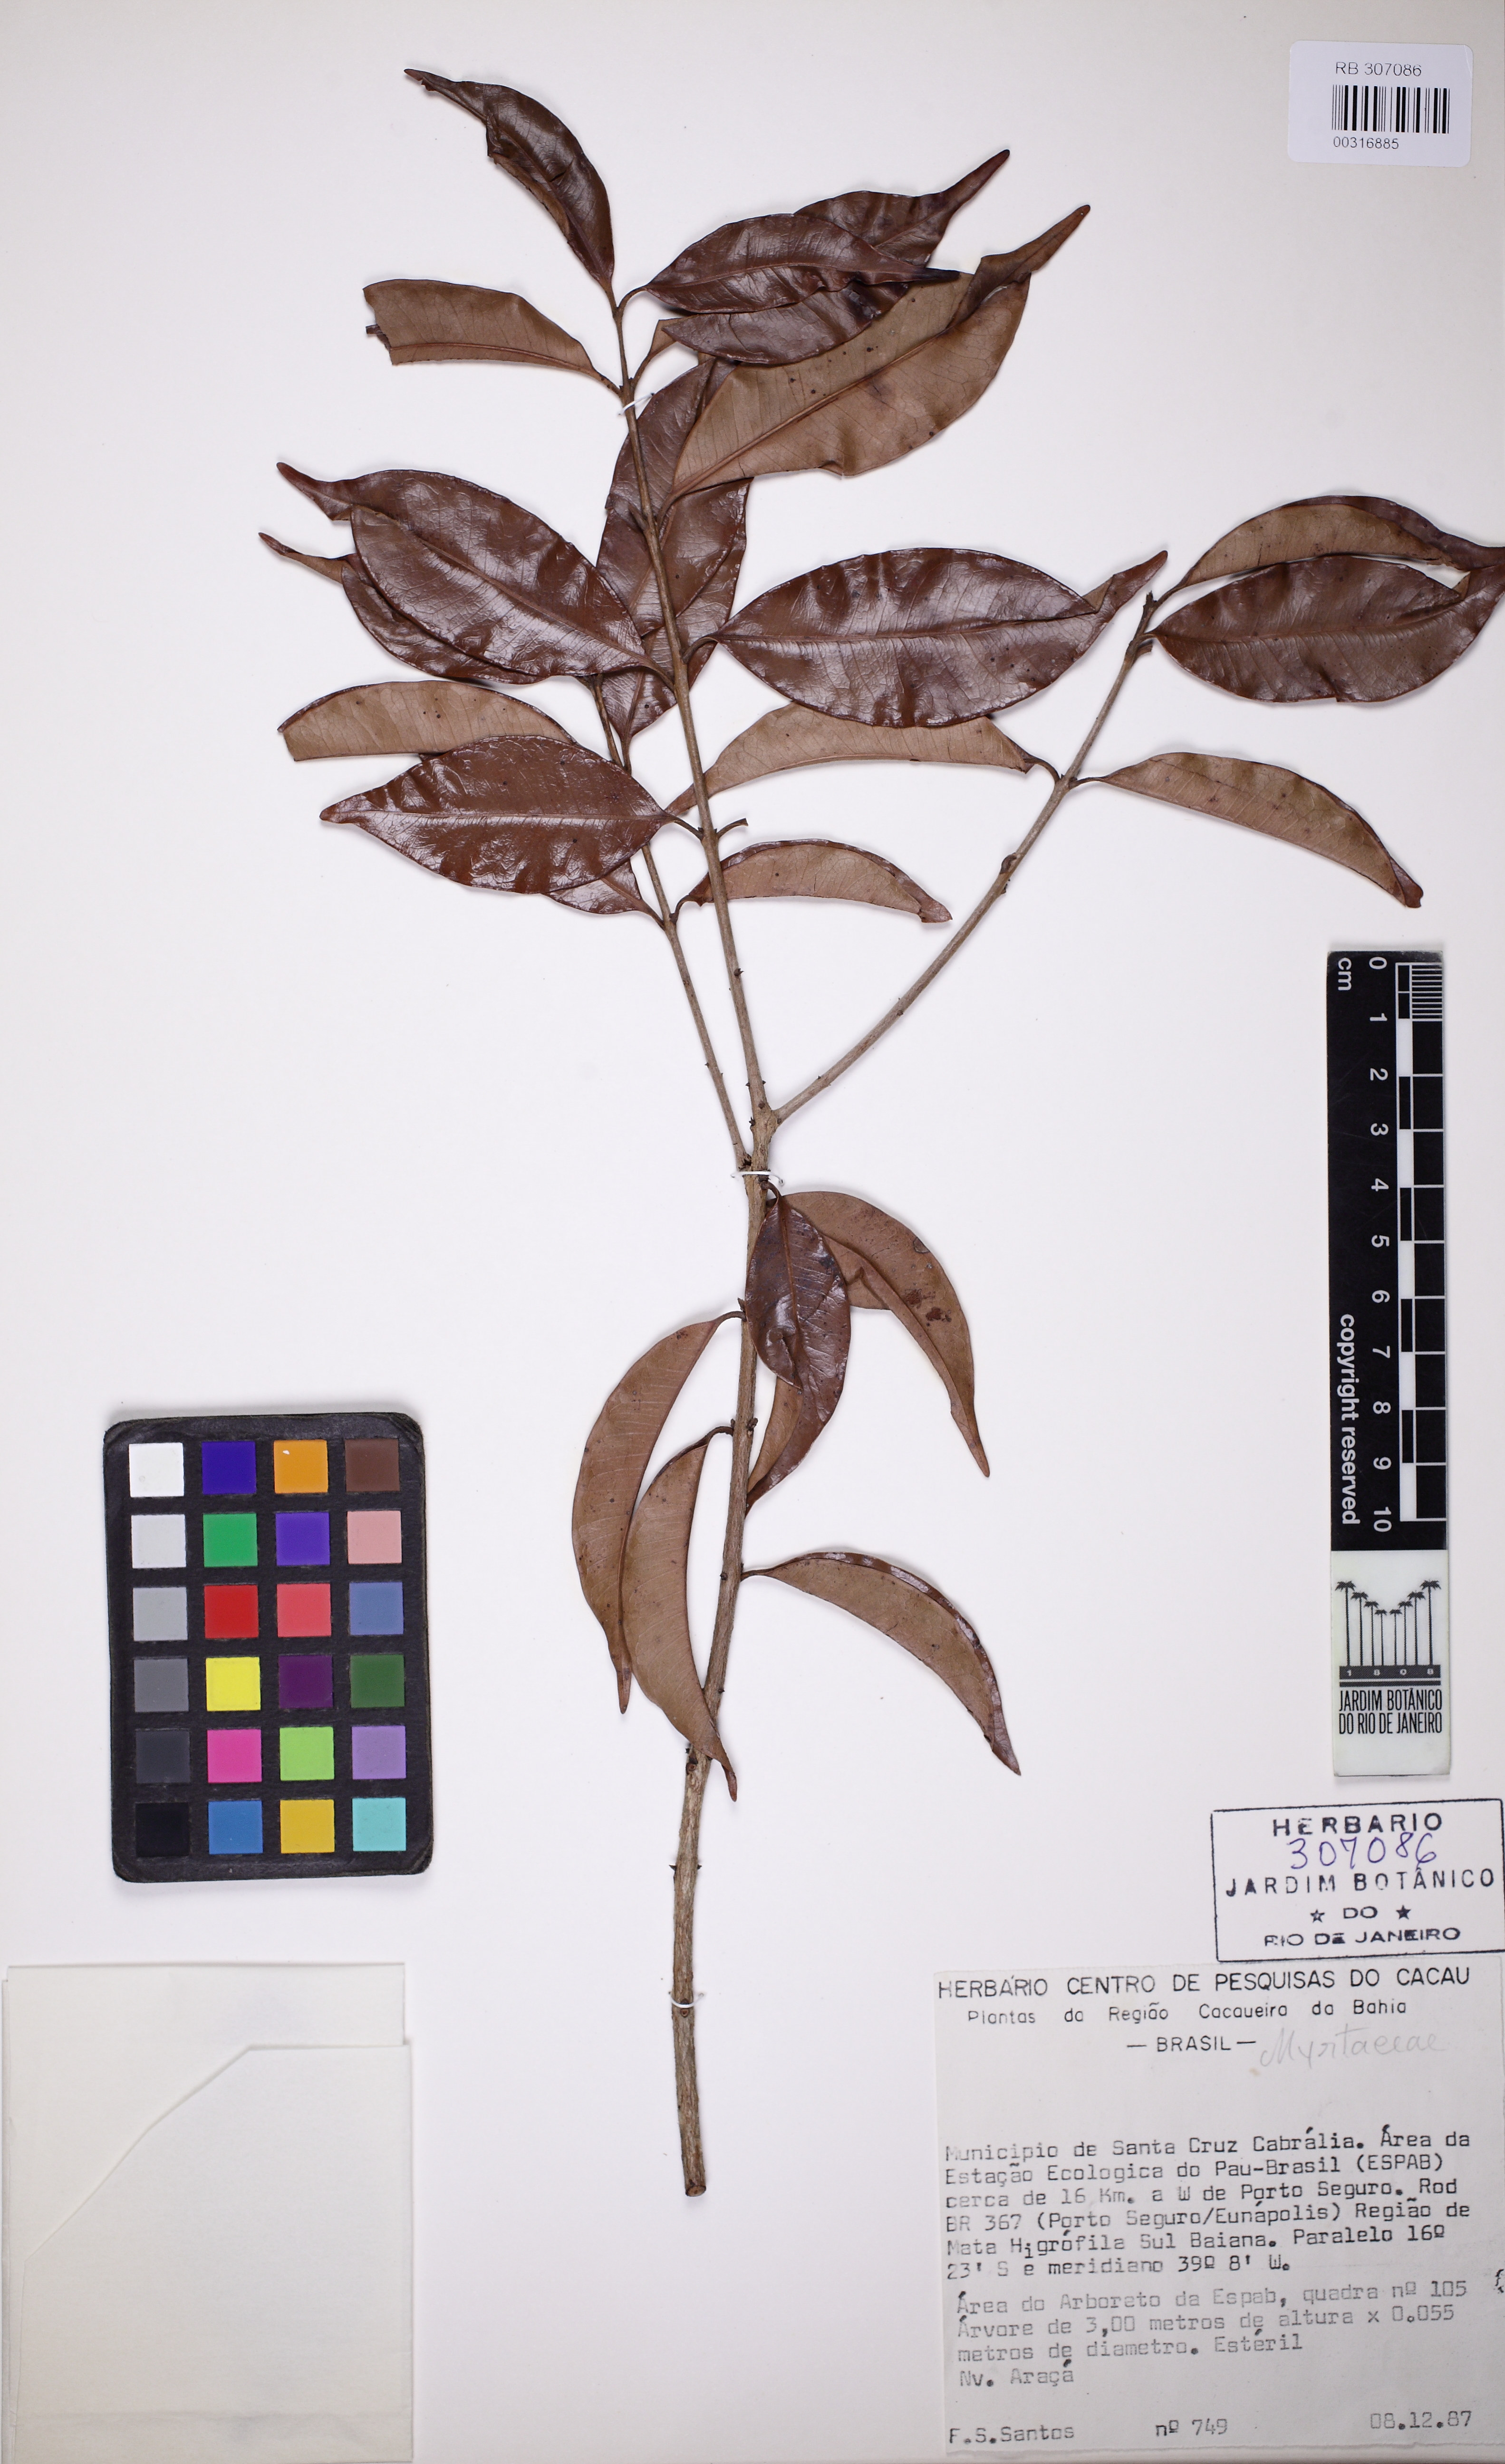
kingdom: Plantae
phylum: Tracheophyta
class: Magnoliopsida
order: Myrtales
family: Myrtaceae
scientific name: Myrtaceae
